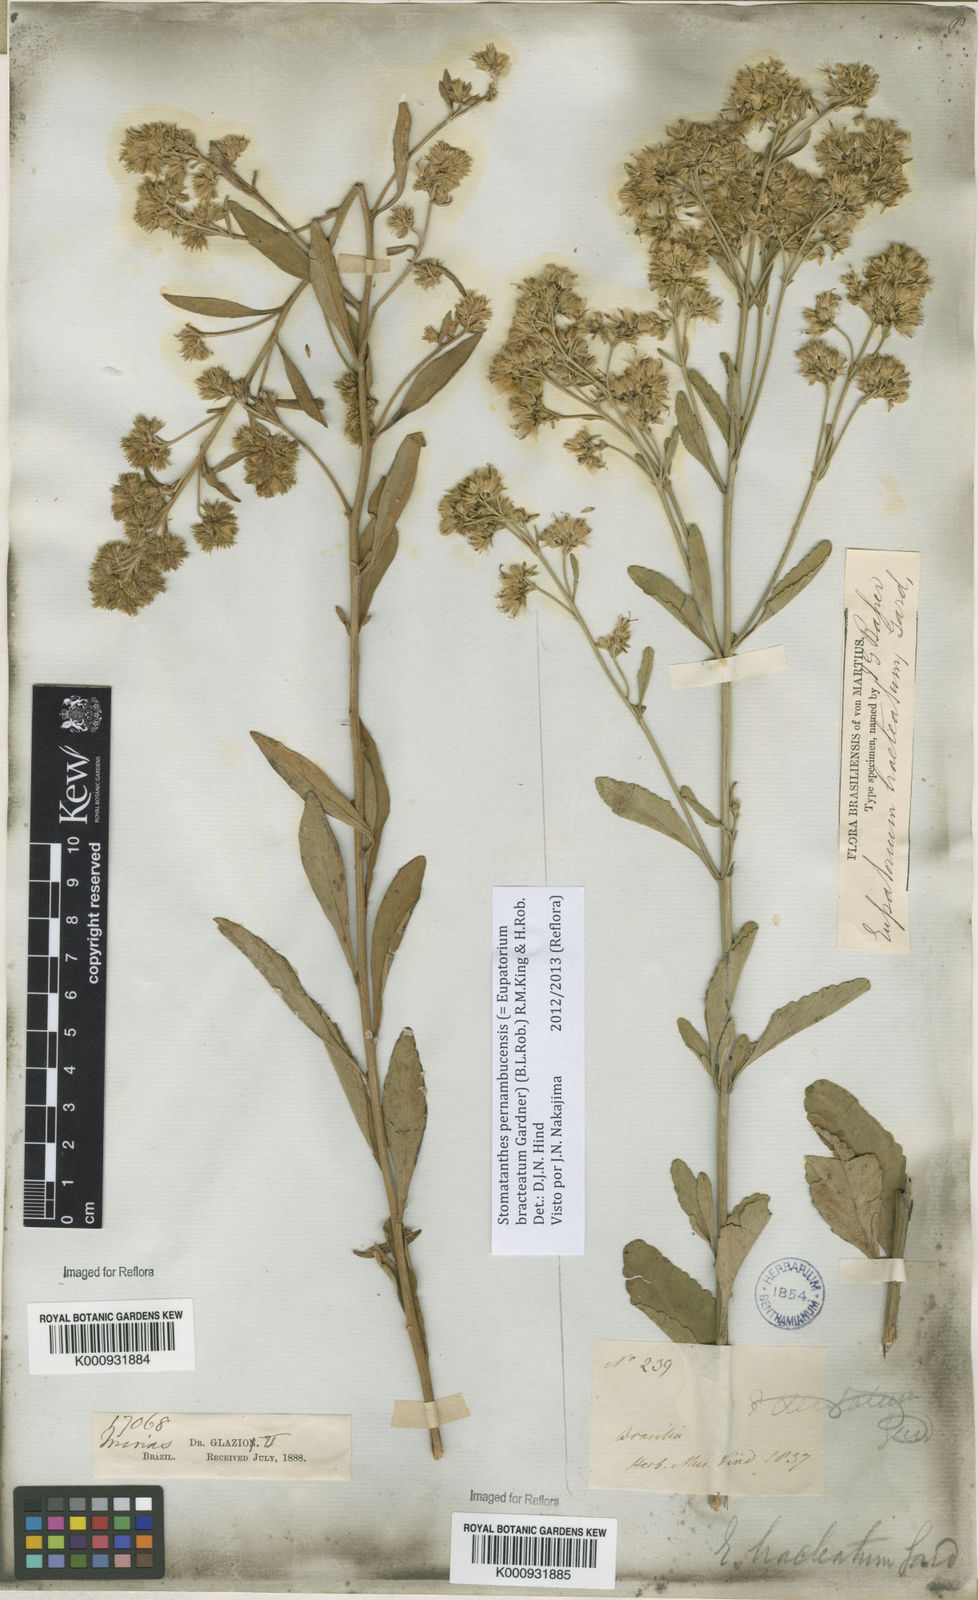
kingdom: Plantae
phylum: Tracheophyta
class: Magnoliopsida
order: Asterales
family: Asteraceae
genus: Stomatanthes
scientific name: Stomatanthes pernambucensis
